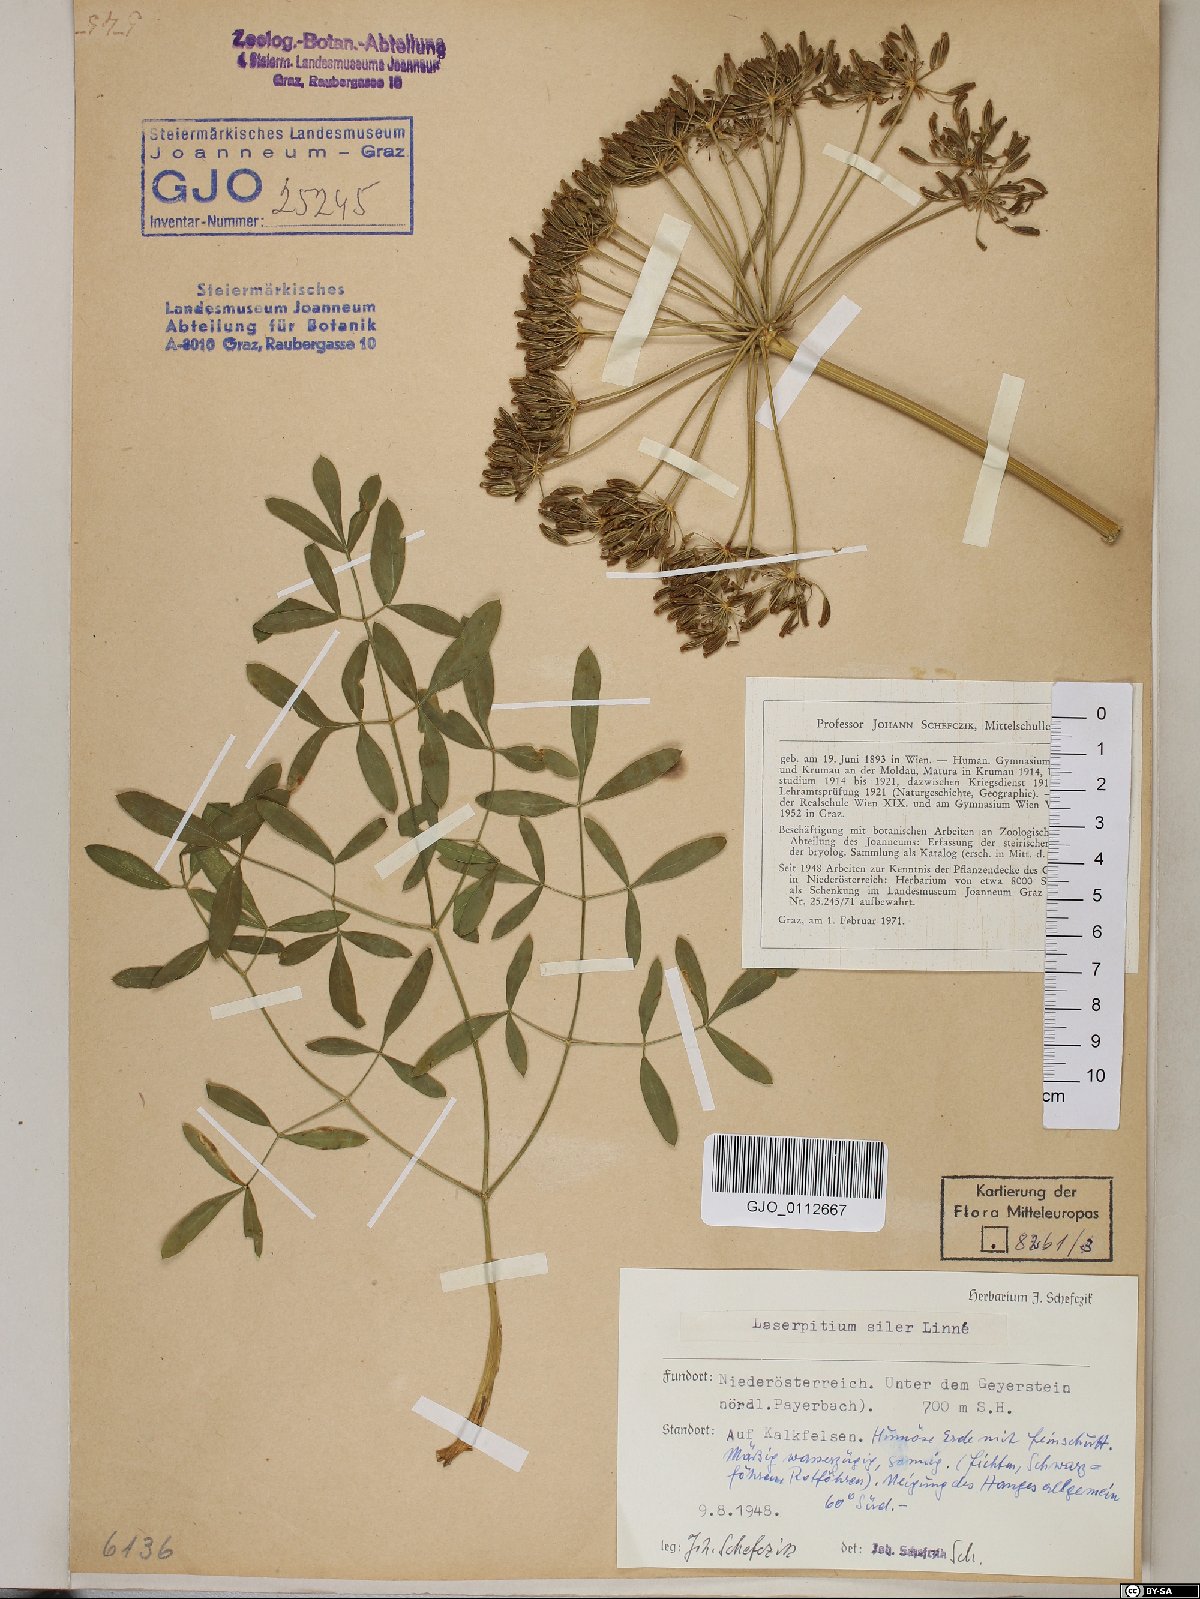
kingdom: Plantae
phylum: Tracheophyta
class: Magnoliopsida
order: Apiales
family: Apiaceae
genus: Siler
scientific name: Siler montanum
